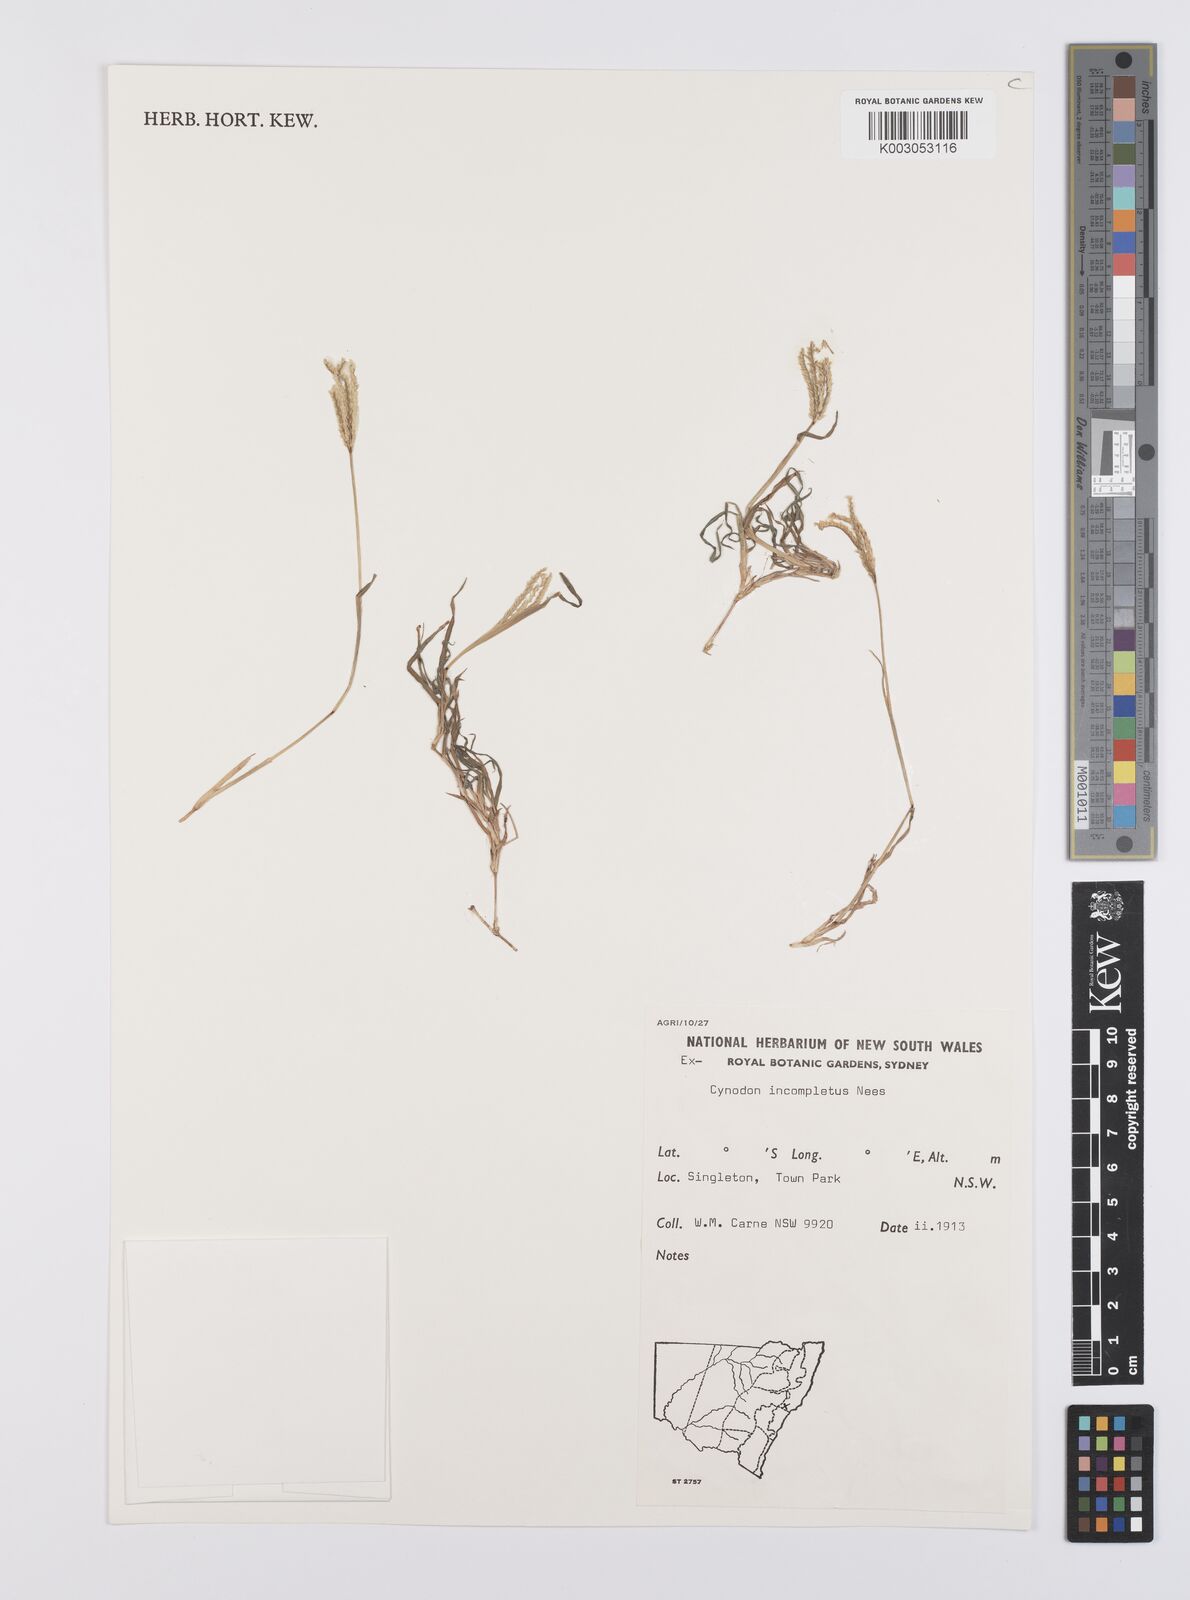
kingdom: Plantae
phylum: Tracheophyta
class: Liliopsida
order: Poales
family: Poaceae
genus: Cynodon
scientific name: Cynodon incompletus
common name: African bermuda-grass
